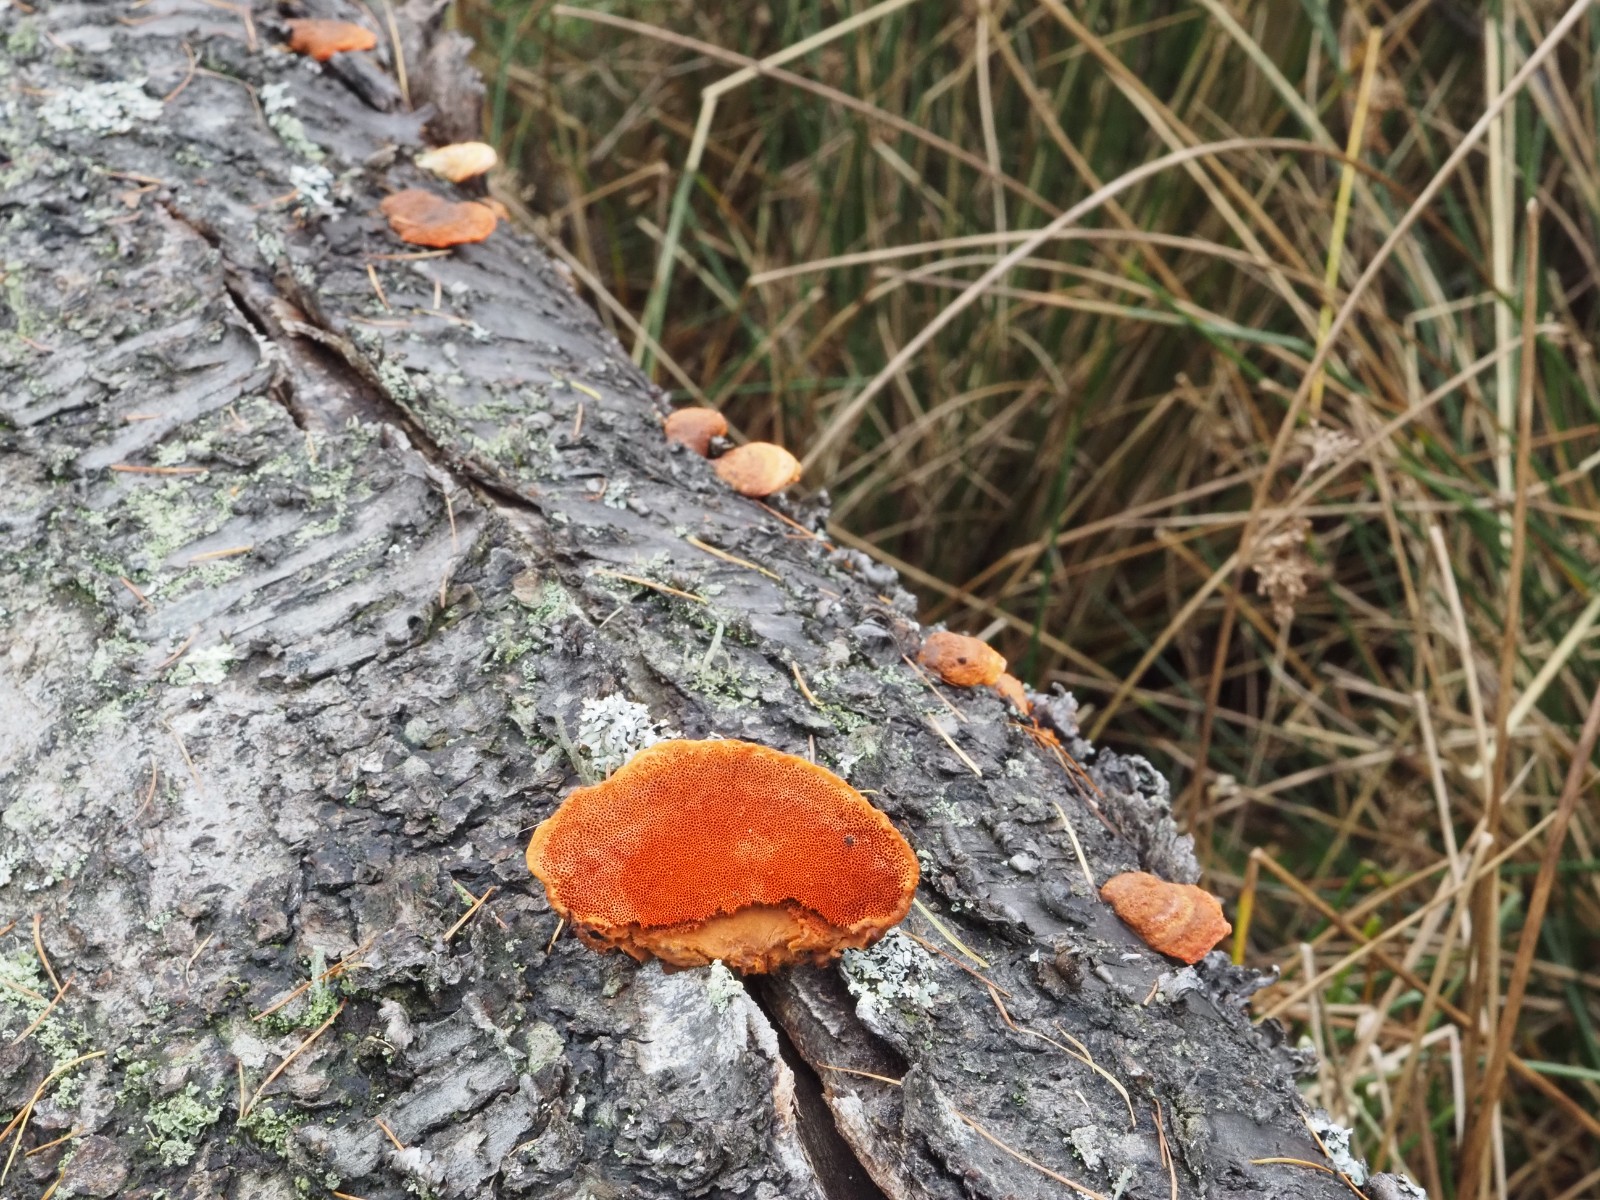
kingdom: Fungi
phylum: Basidiomycota
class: Agaricomycetes
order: Polyporales
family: Polyporaceae
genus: Trametes
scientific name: Trametes cinnabarina
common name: cinnoberporesvamp
